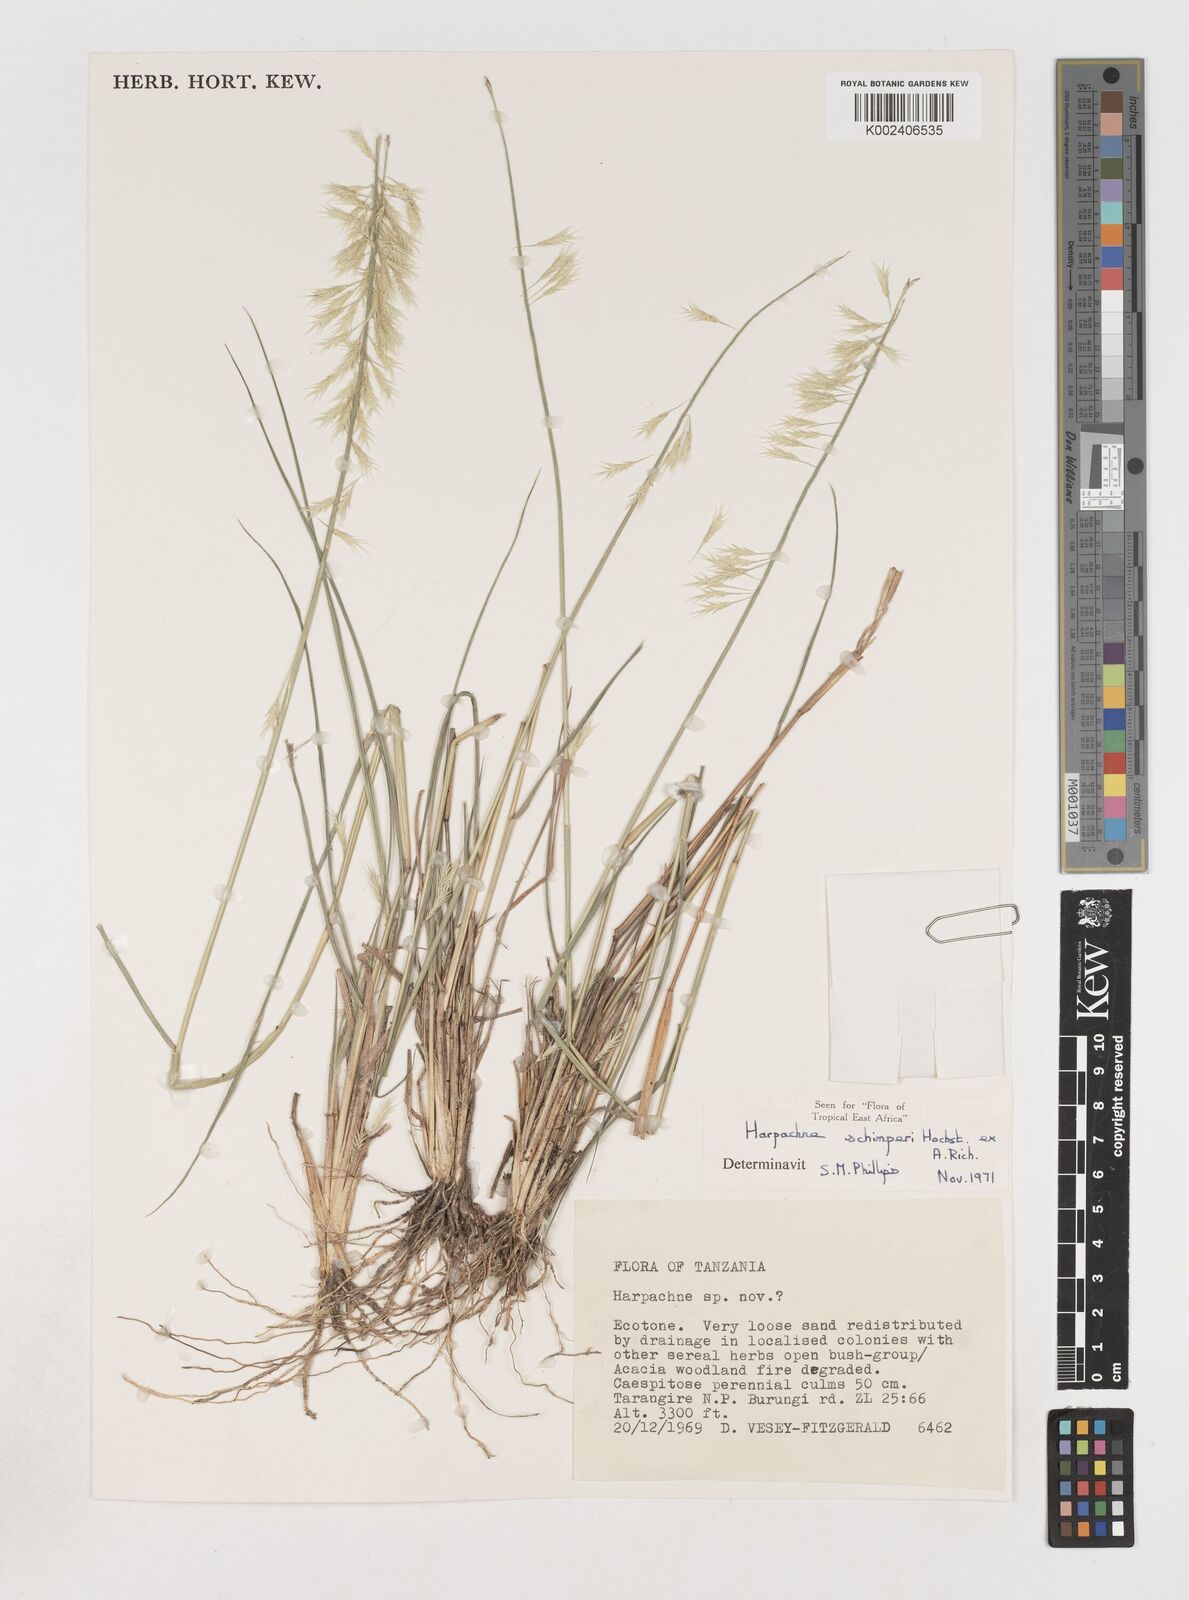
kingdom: Plantae
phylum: Tracheophyta
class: Liliopsida
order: Poales
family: Poaceae
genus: Harpachne
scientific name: Harpachne schimperi
